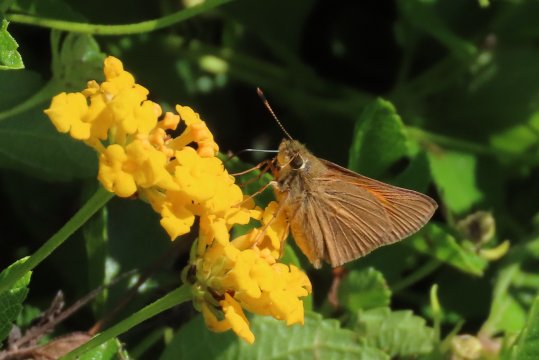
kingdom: Animalia
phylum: Arthropoda
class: Insecta
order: Lepidoptera
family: Hesperiidae
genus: Poanes
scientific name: Poanes aaroni
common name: Aaron's Skipper
